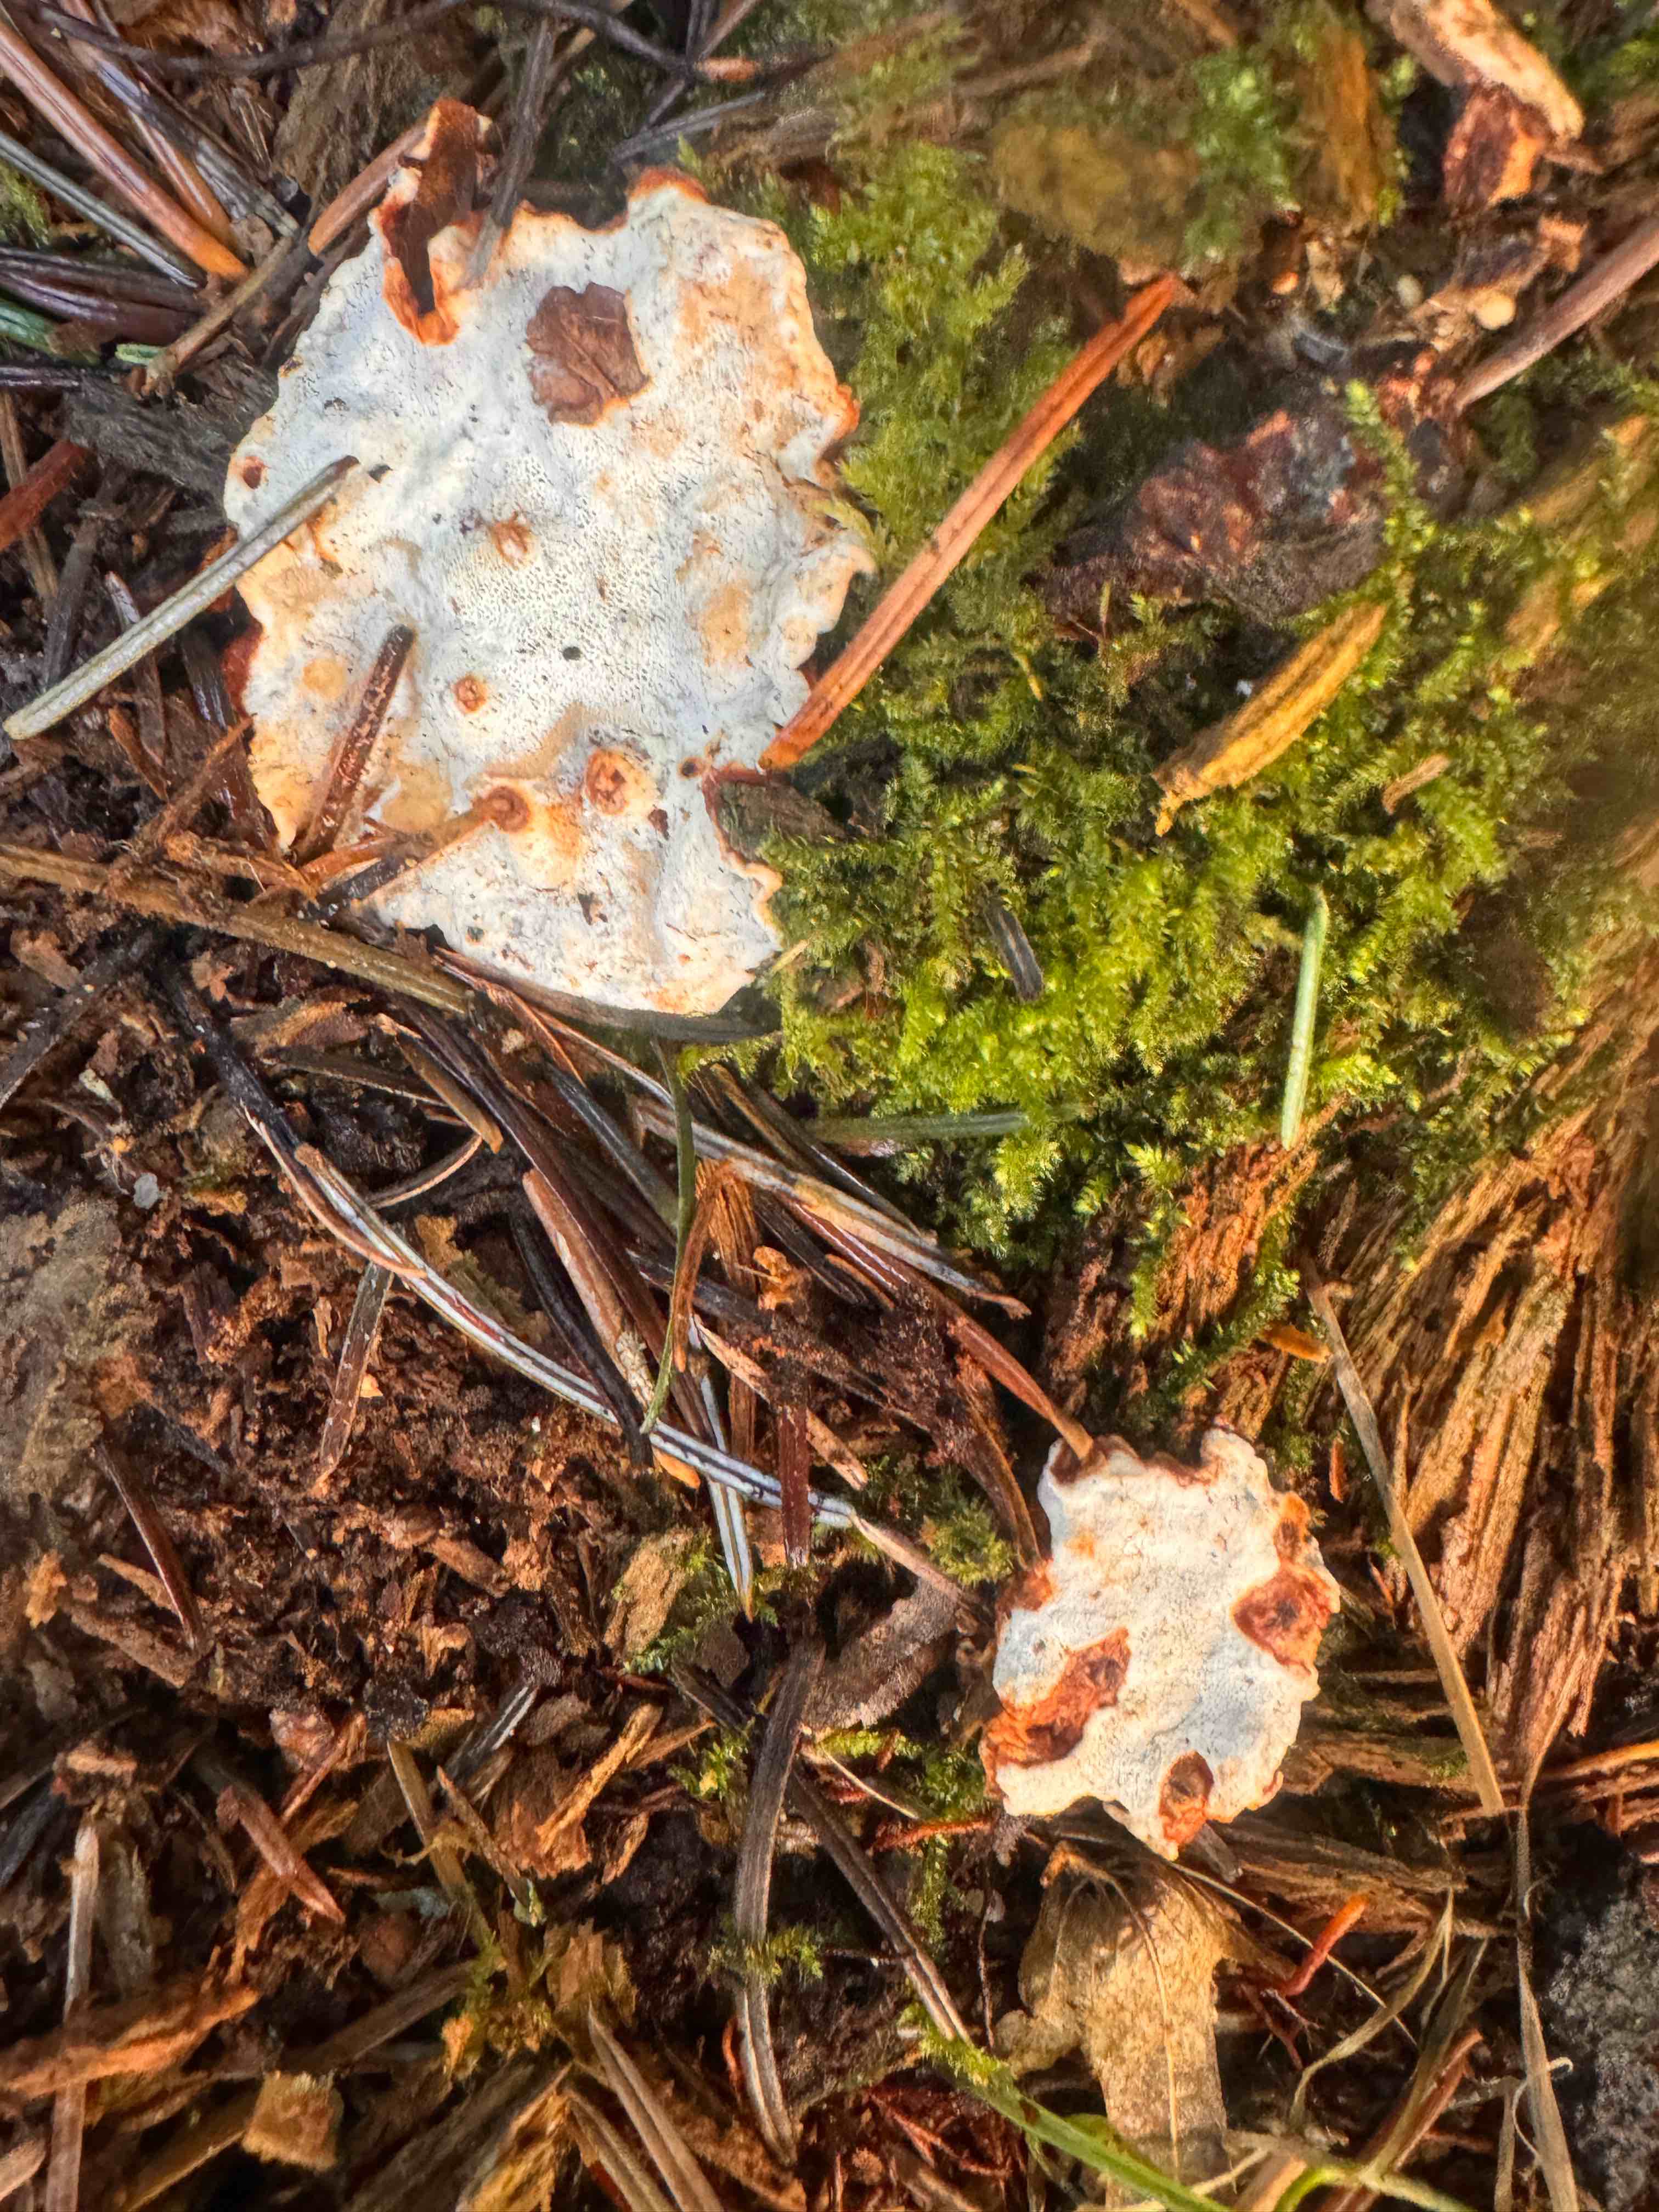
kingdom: Fungi
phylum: Basidiomycota
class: Agaricomycetes
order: Russulales
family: Bondarzewiaceae
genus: Heterobasidion
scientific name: Heterobasidion annosum
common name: almindelig rodfordærver
